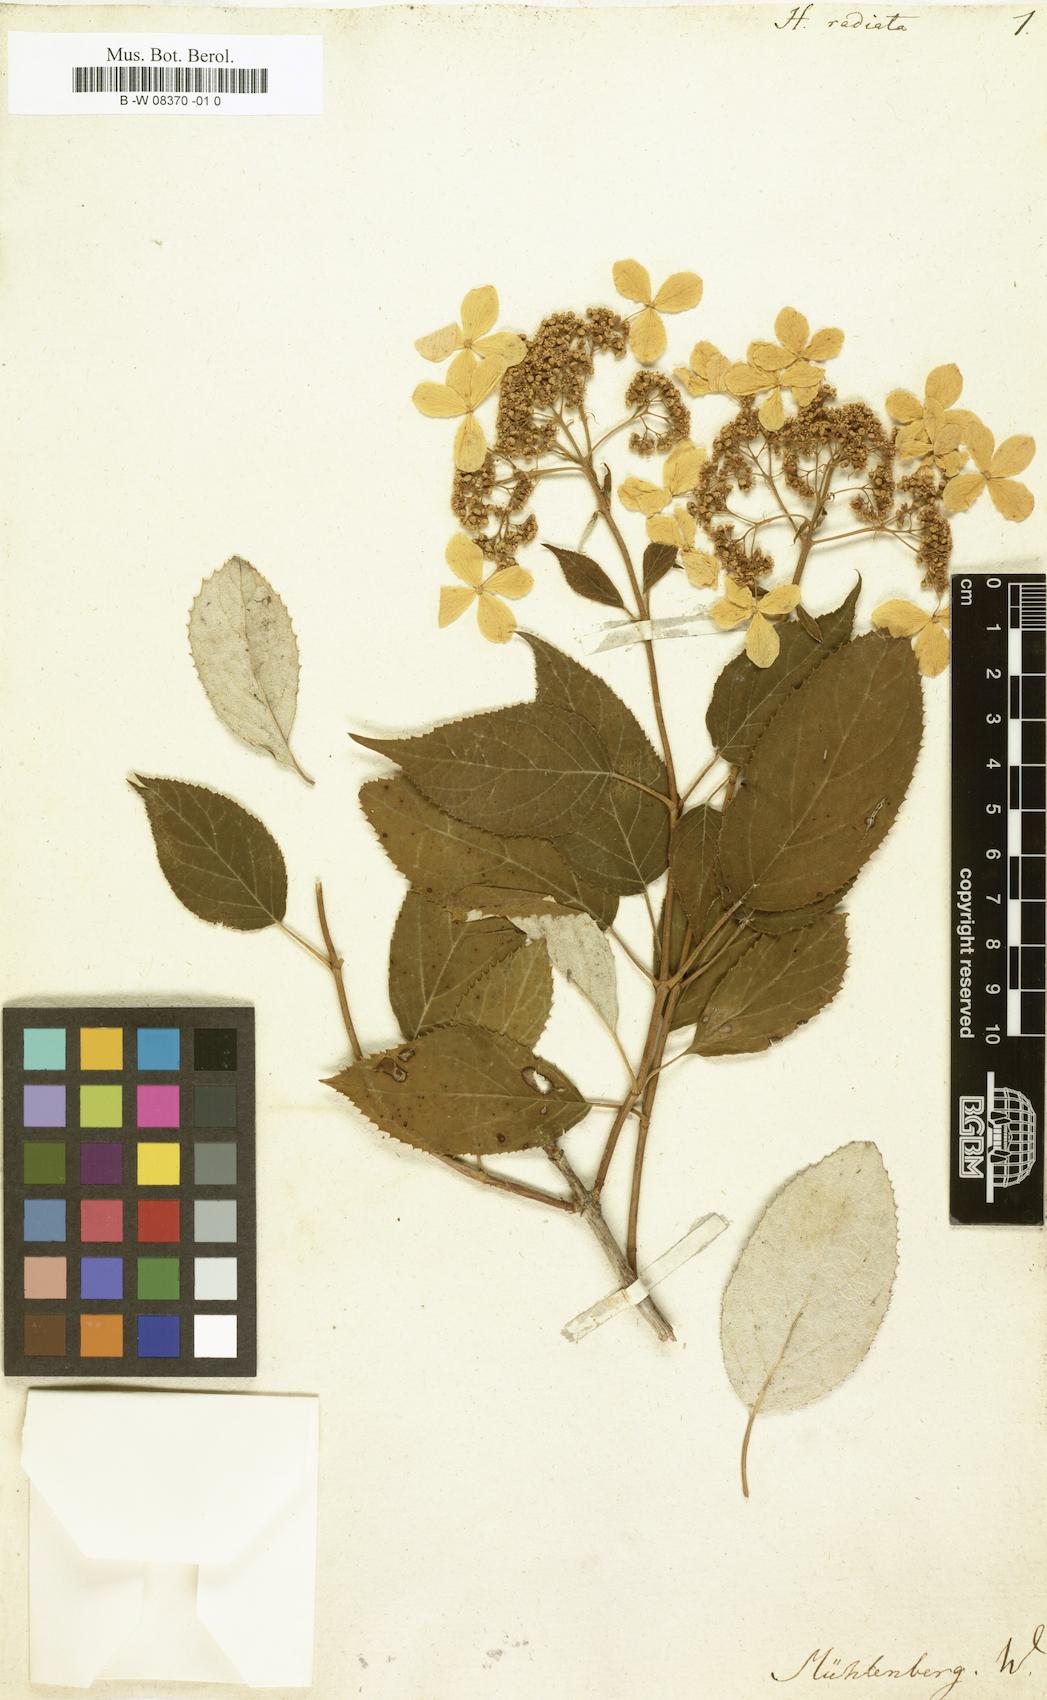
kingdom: Plantae
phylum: Tracheophyta
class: Magnoliopsida
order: Cornales
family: Hydrangeaceae
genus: Hydrangea
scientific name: Hydrangea radiata
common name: Silverleaf hydrangea
